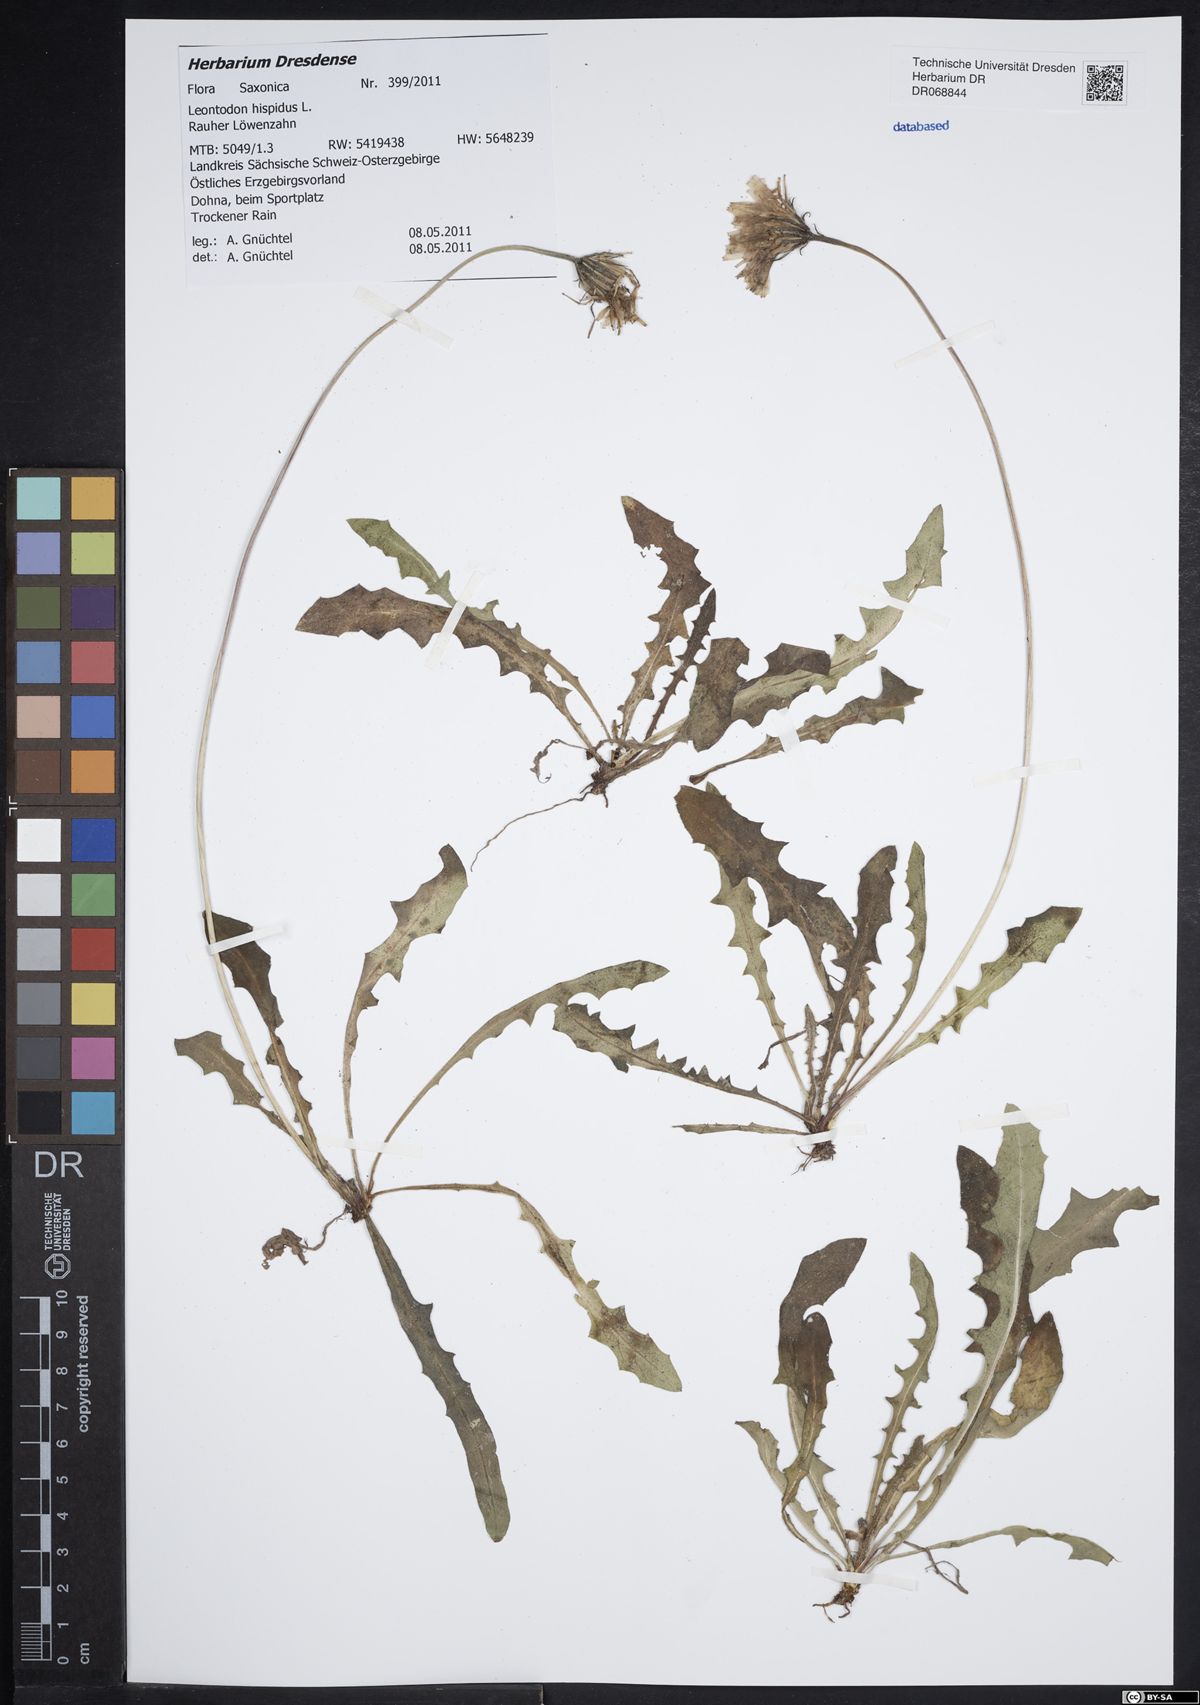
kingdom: Plantae
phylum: Tracheophyta
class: Magnoliopsida
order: Asterales
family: Asteraceae
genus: Leontodon
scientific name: Leontodon hispidus
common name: Rough hawkbit
